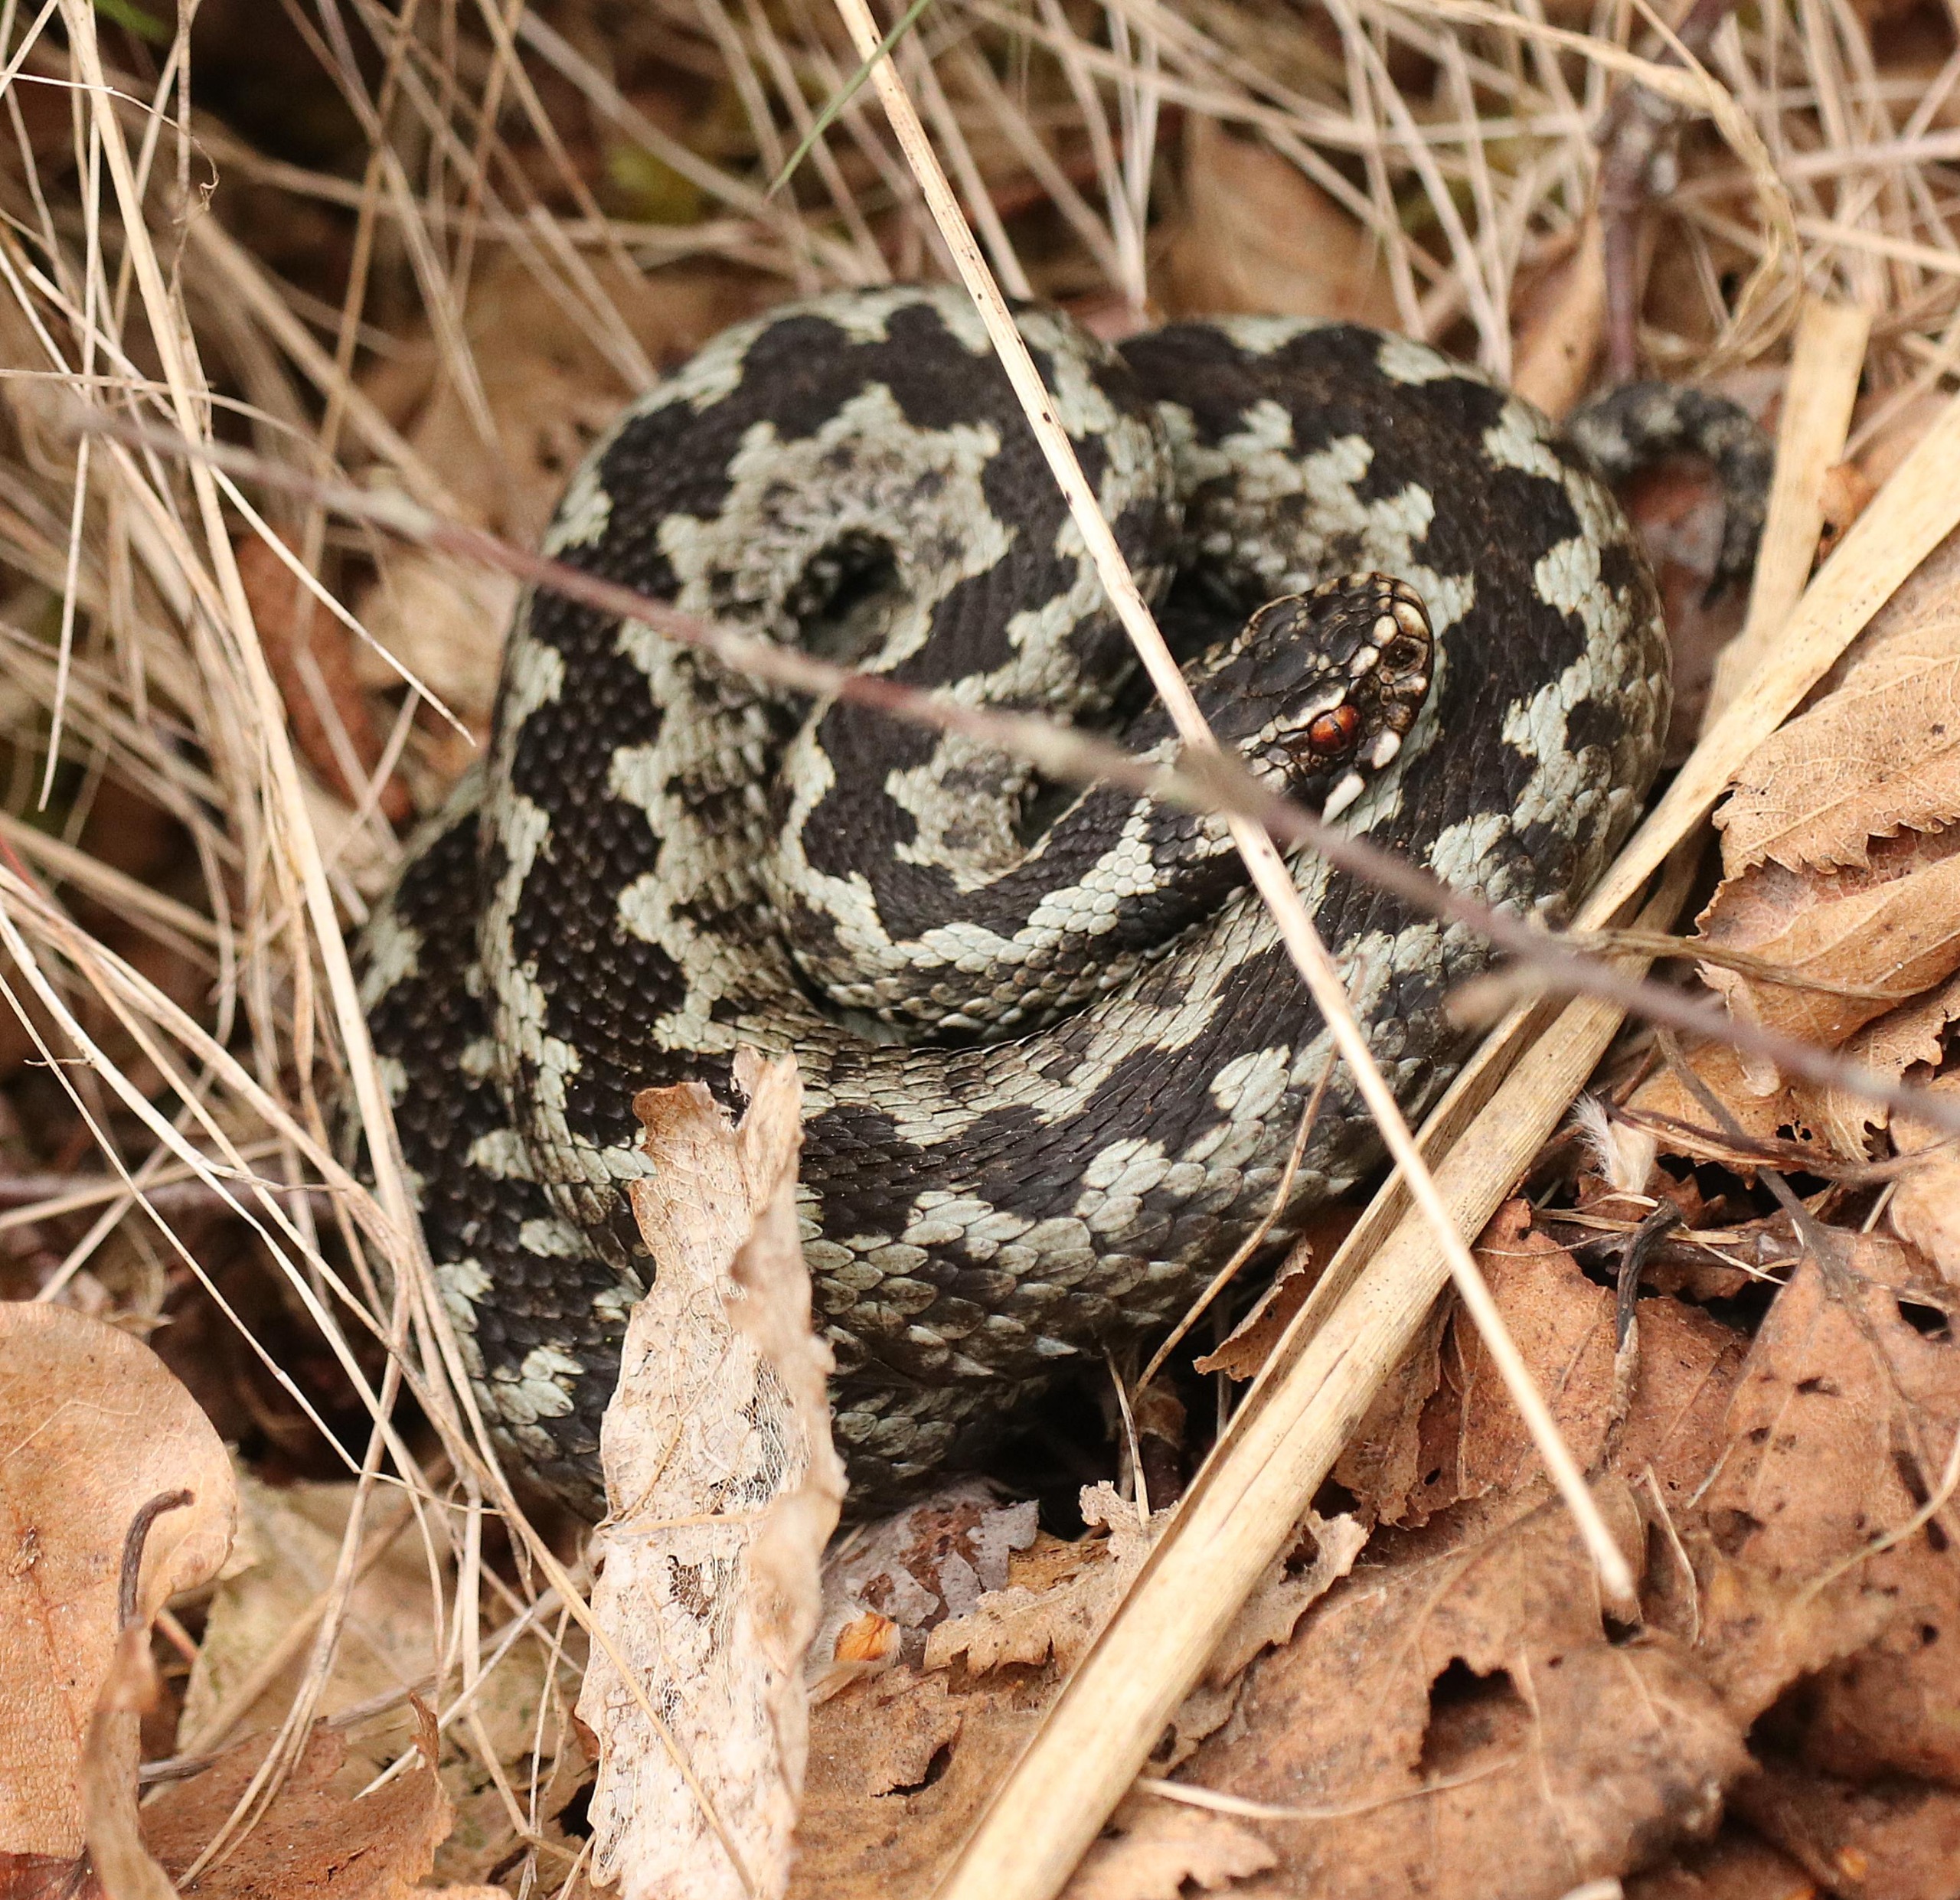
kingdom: Animalia
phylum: Chordata
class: Squamata
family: Viperidae
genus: Vipera
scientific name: Vipera berus
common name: Hugorm
